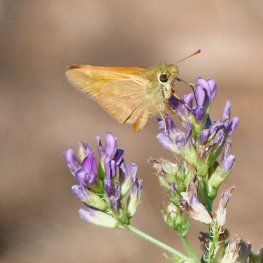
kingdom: Animalia
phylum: Arthropoda
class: Insecta
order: Lepidoptera
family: Hesperiidae
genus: Ochlodes
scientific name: Ochlodes sylvanoides
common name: Woodland Skipper
